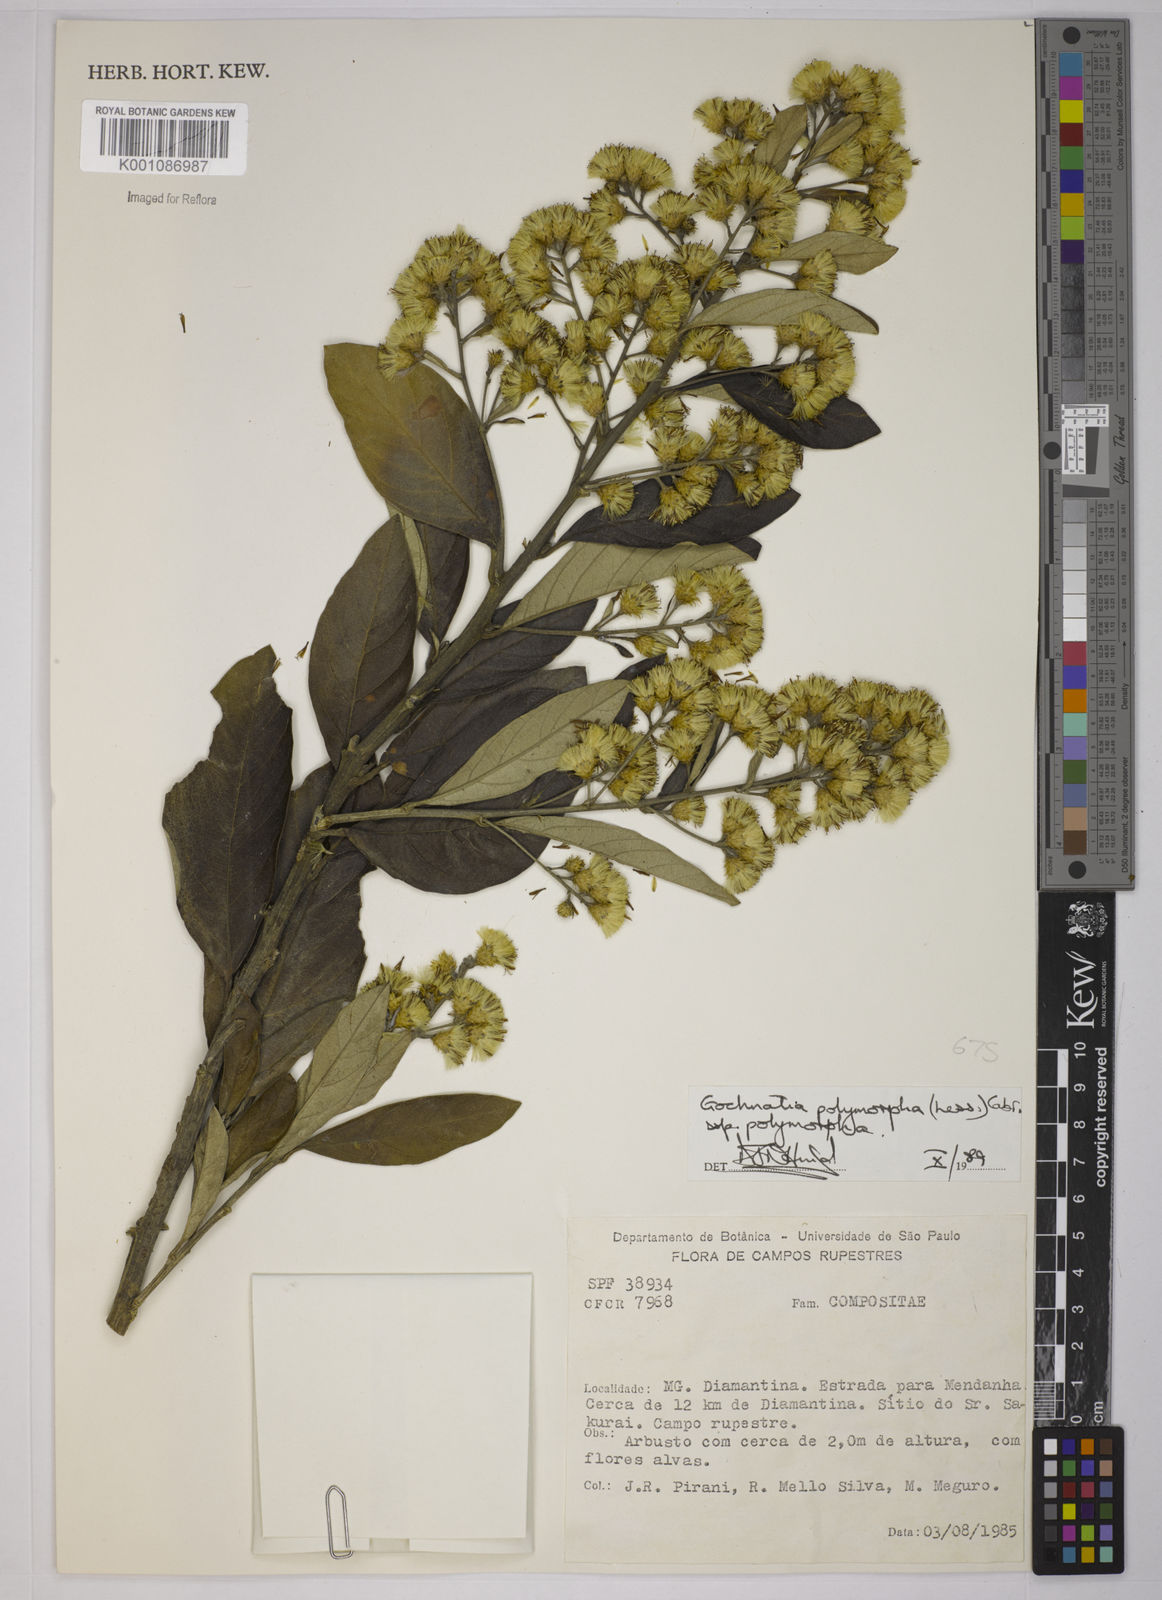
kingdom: Plantae
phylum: Tracheophyta
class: Magnoliopsida
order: Asterales
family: Asteraceae
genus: Moquiniastrum
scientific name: Moquiniastrum polymorphum
